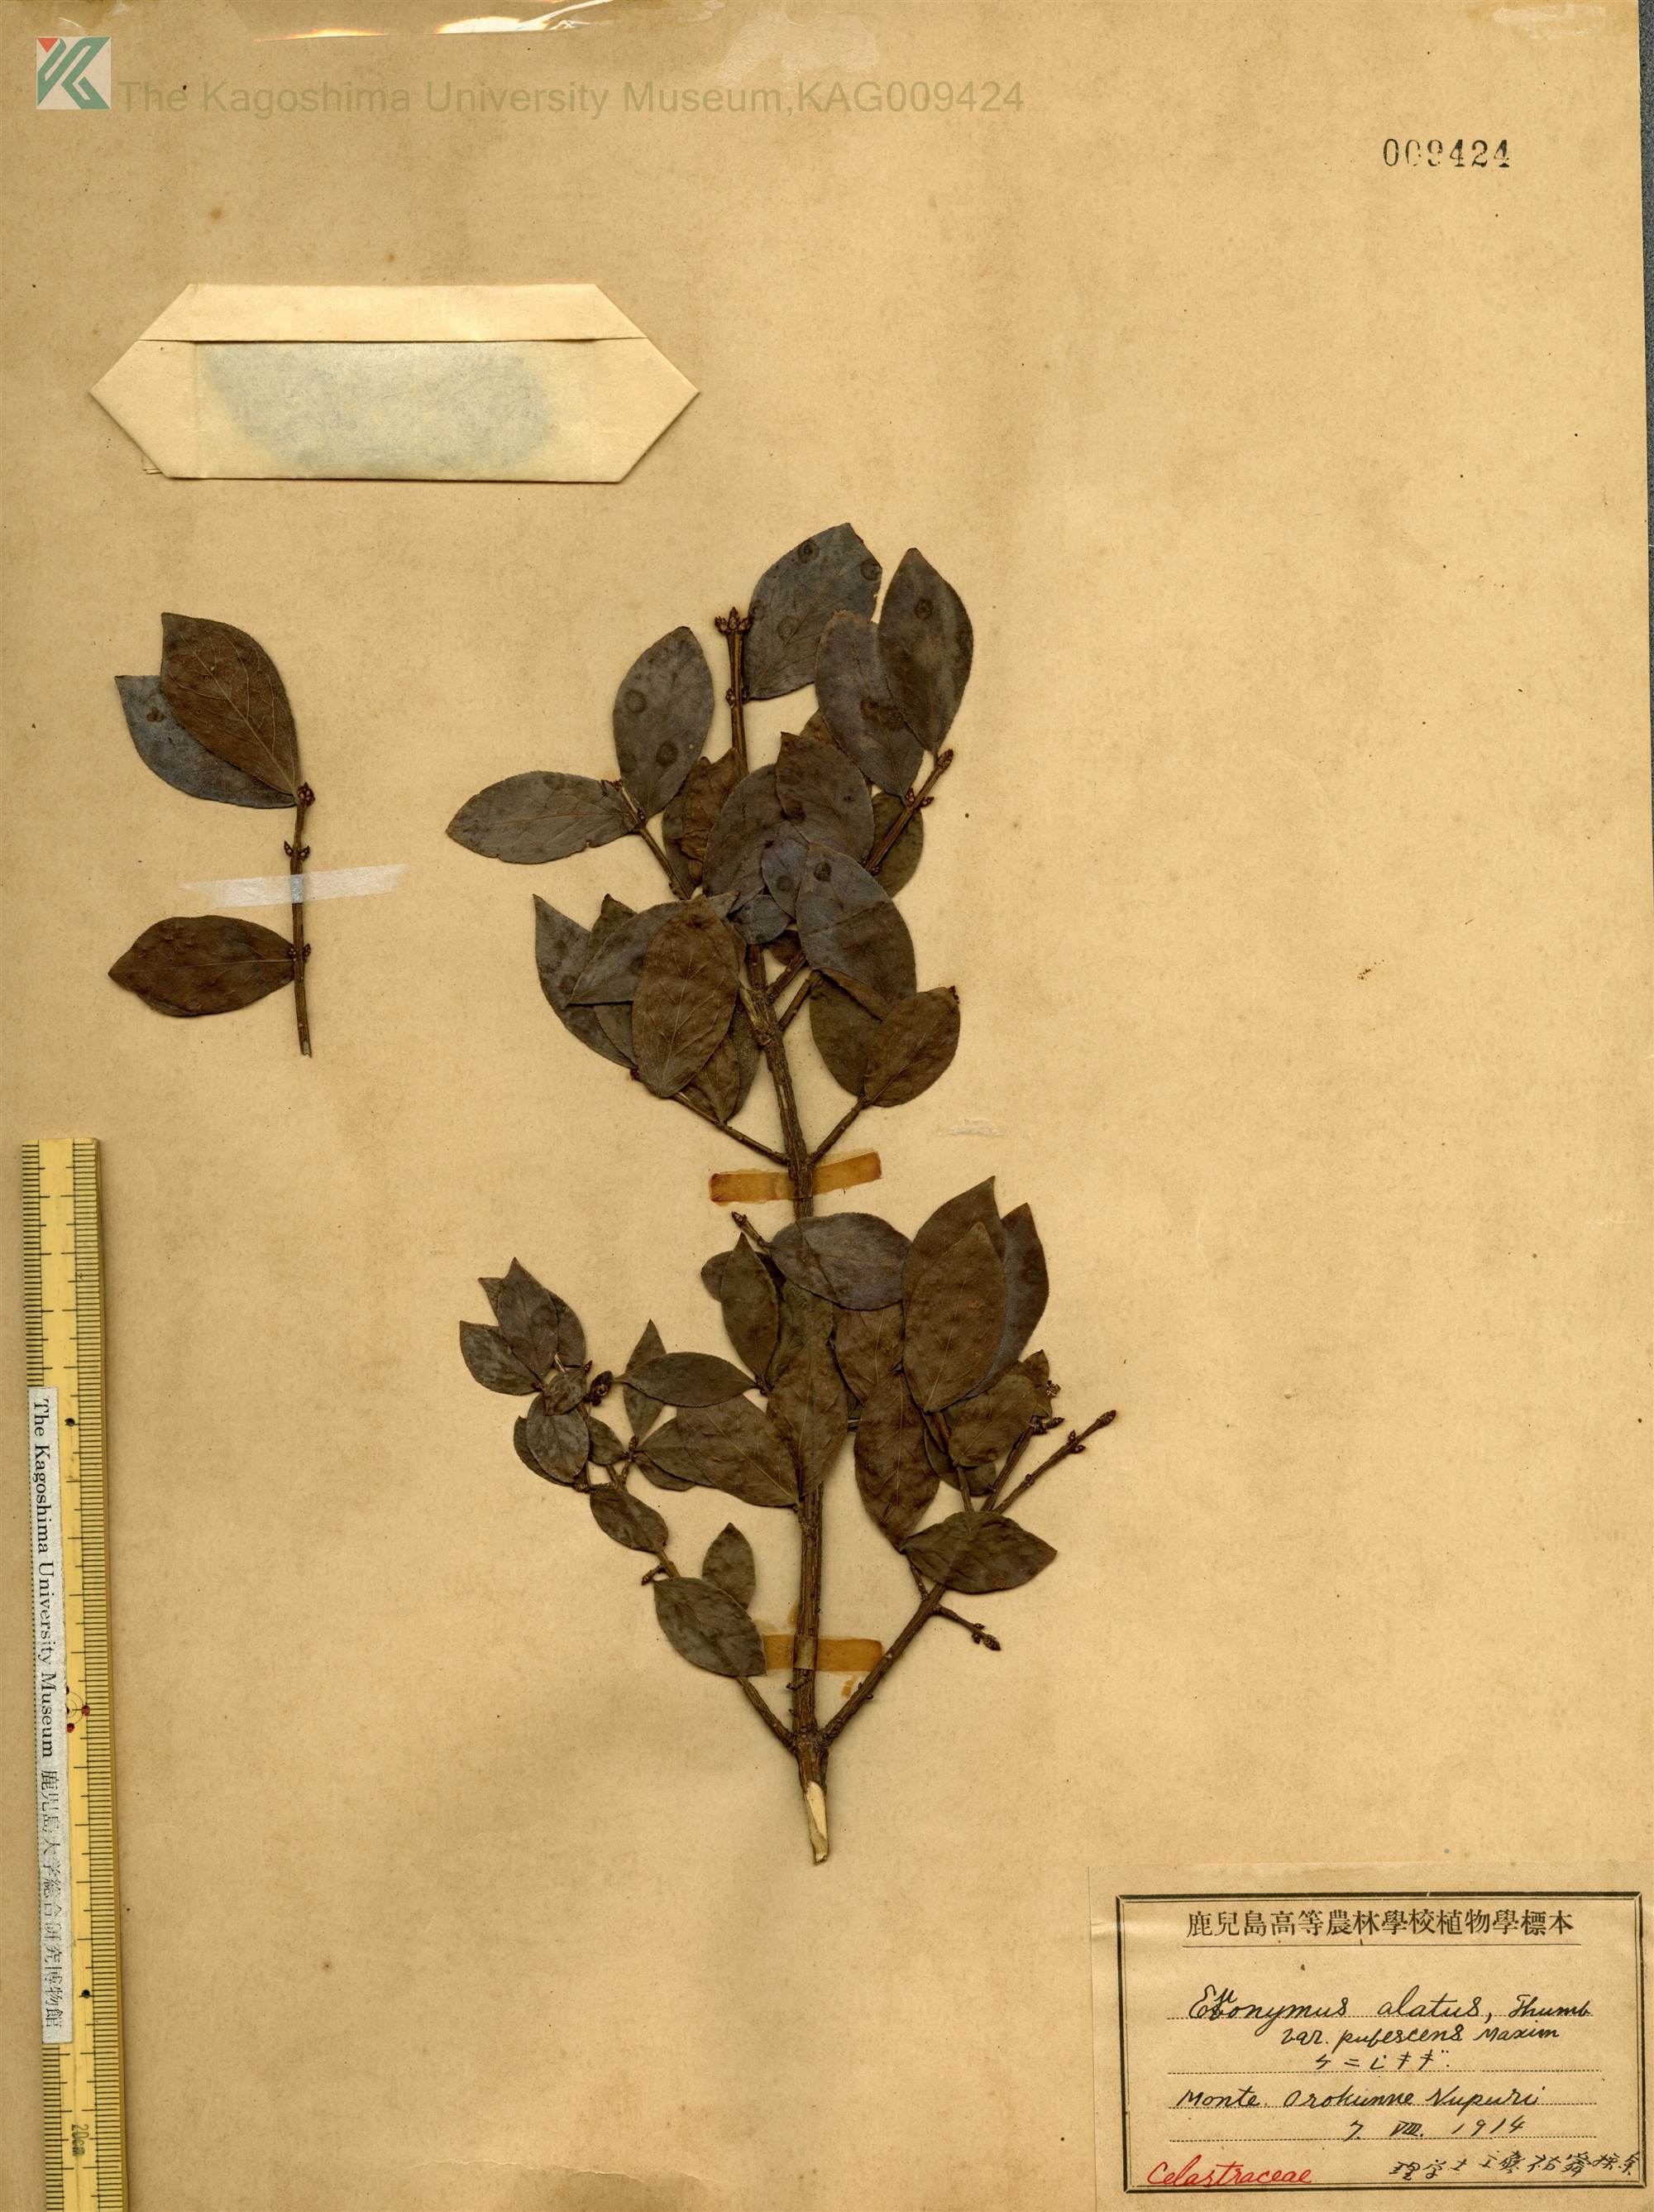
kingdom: Plantae
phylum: Tracheophyta
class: Magnoliopsida
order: Celastrales
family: Celastraceae
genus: Euonymus
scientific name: Euonymus alatus
